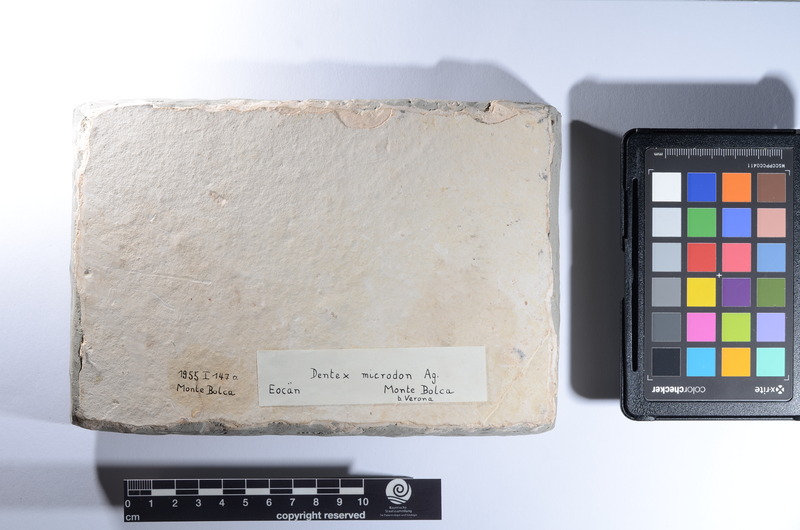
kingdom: Animalia
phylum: Chordata
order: Perciformes
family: Sparidae
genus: Dentex
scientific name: Dentex microdon
